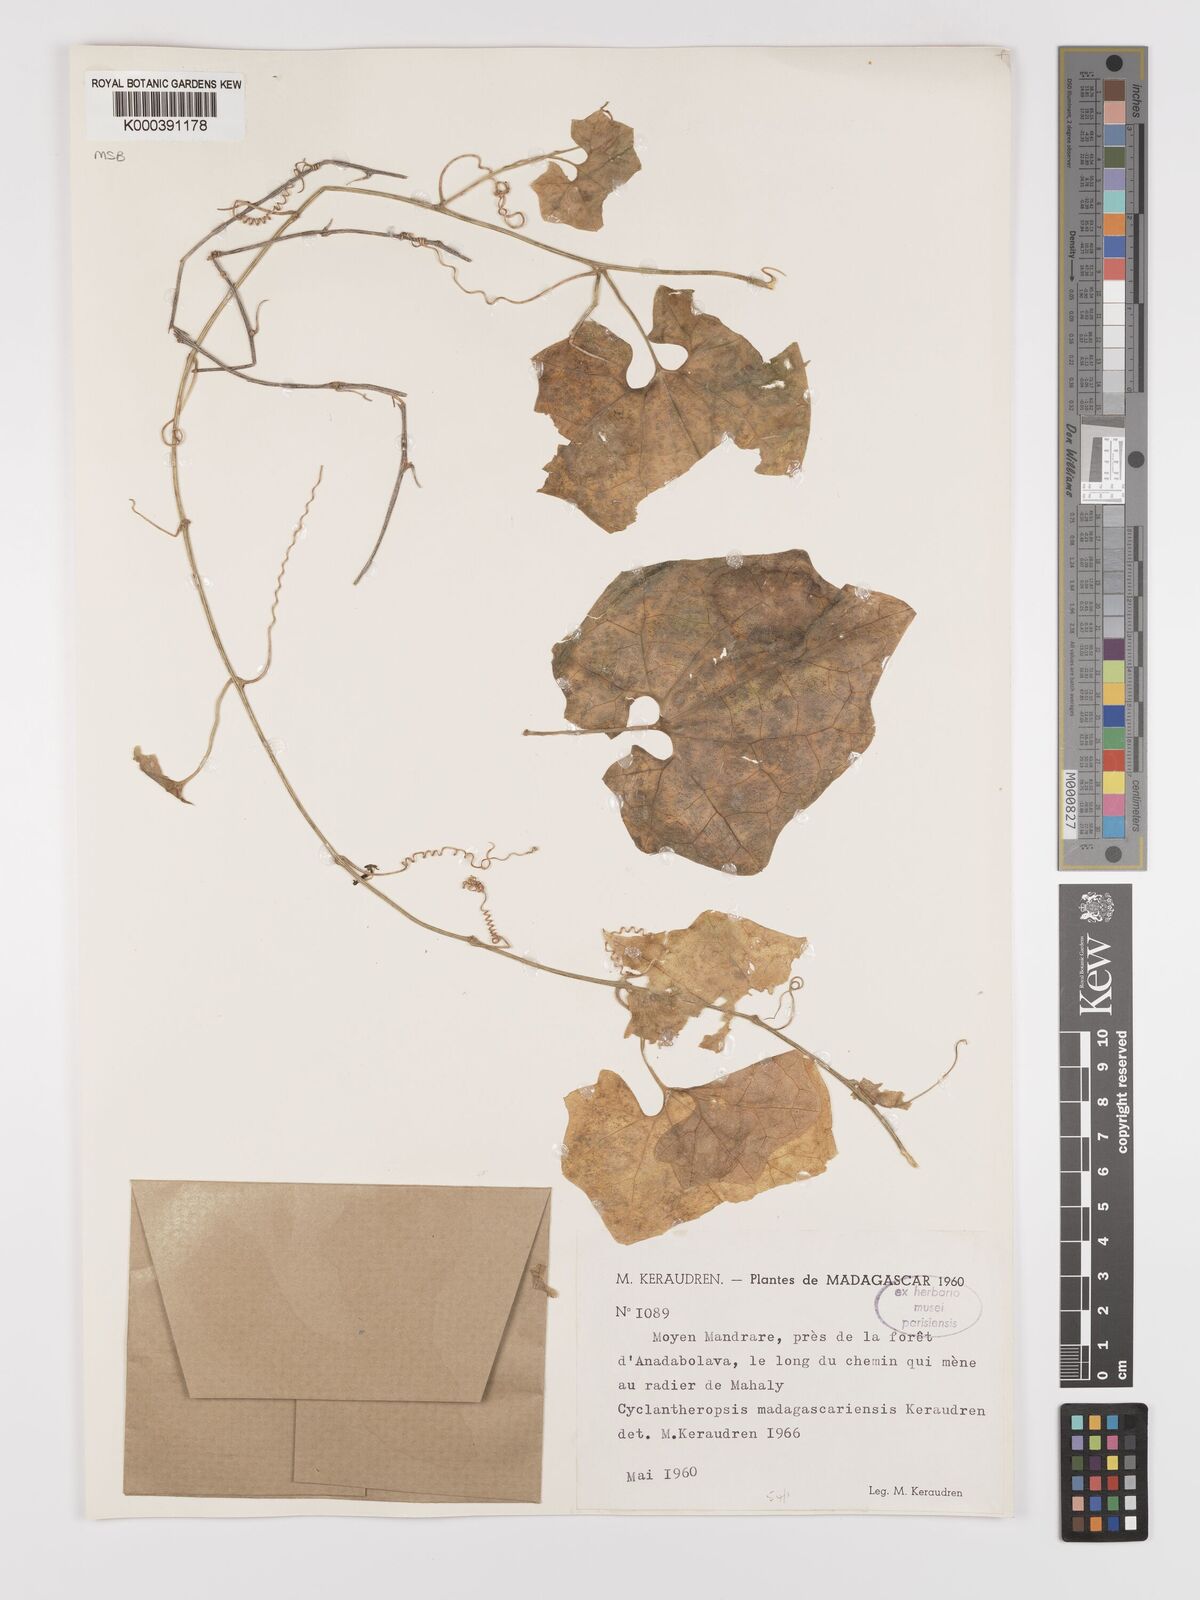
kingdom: Plantae
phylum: Tracheophyta
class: Magnoliopsida
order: Cucurbitales
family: Cucurbitaceae
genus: Cyclantheropsis
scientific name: Cyclantheropsis madagascariensis
